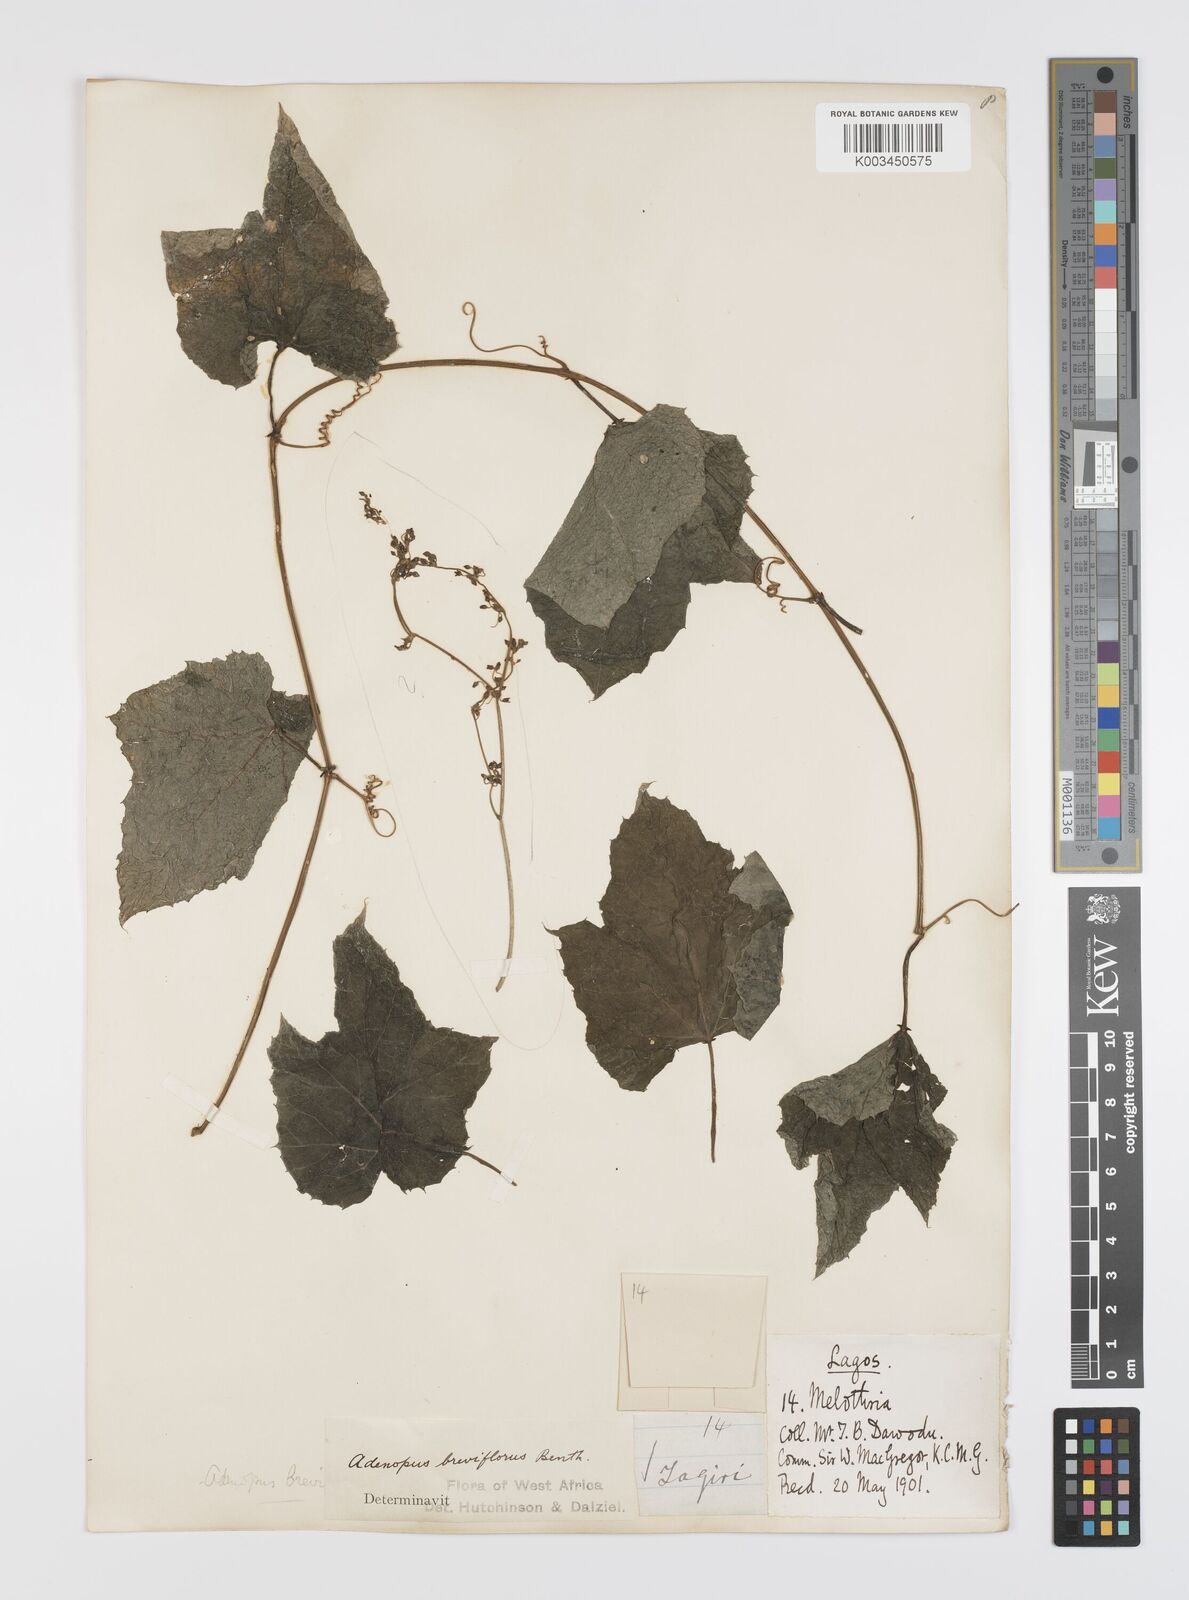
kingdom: Plantae
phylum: Tracheophyta
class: Magnoliopsida
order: Cucurbitales
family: Cucurbitaceae
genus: Lagenaria
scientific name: Lagenaria breviflora
